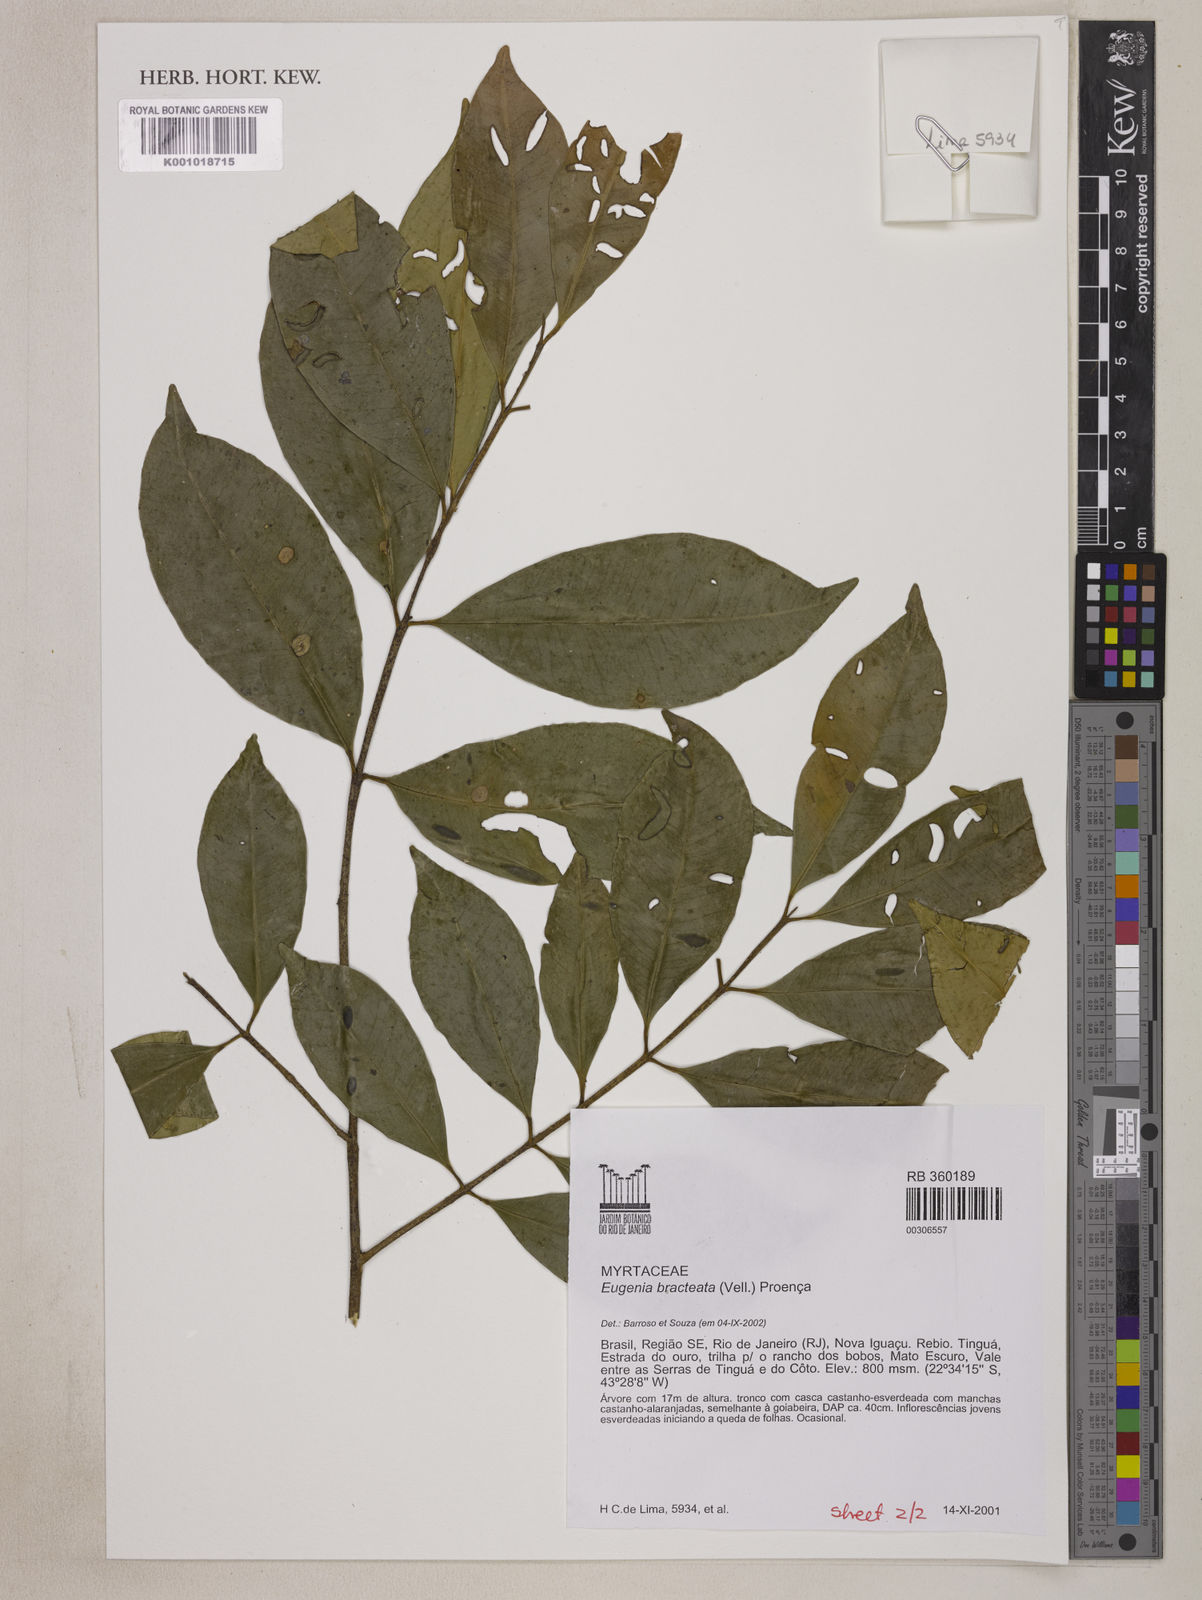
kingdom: Plantae
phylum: Tracheophyta
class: Magnoliopsida
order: Myrtales
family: Myrtaceae
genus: Eugenia
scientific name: Eugenia involucrata
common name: Cherry-of-the-rio grande
